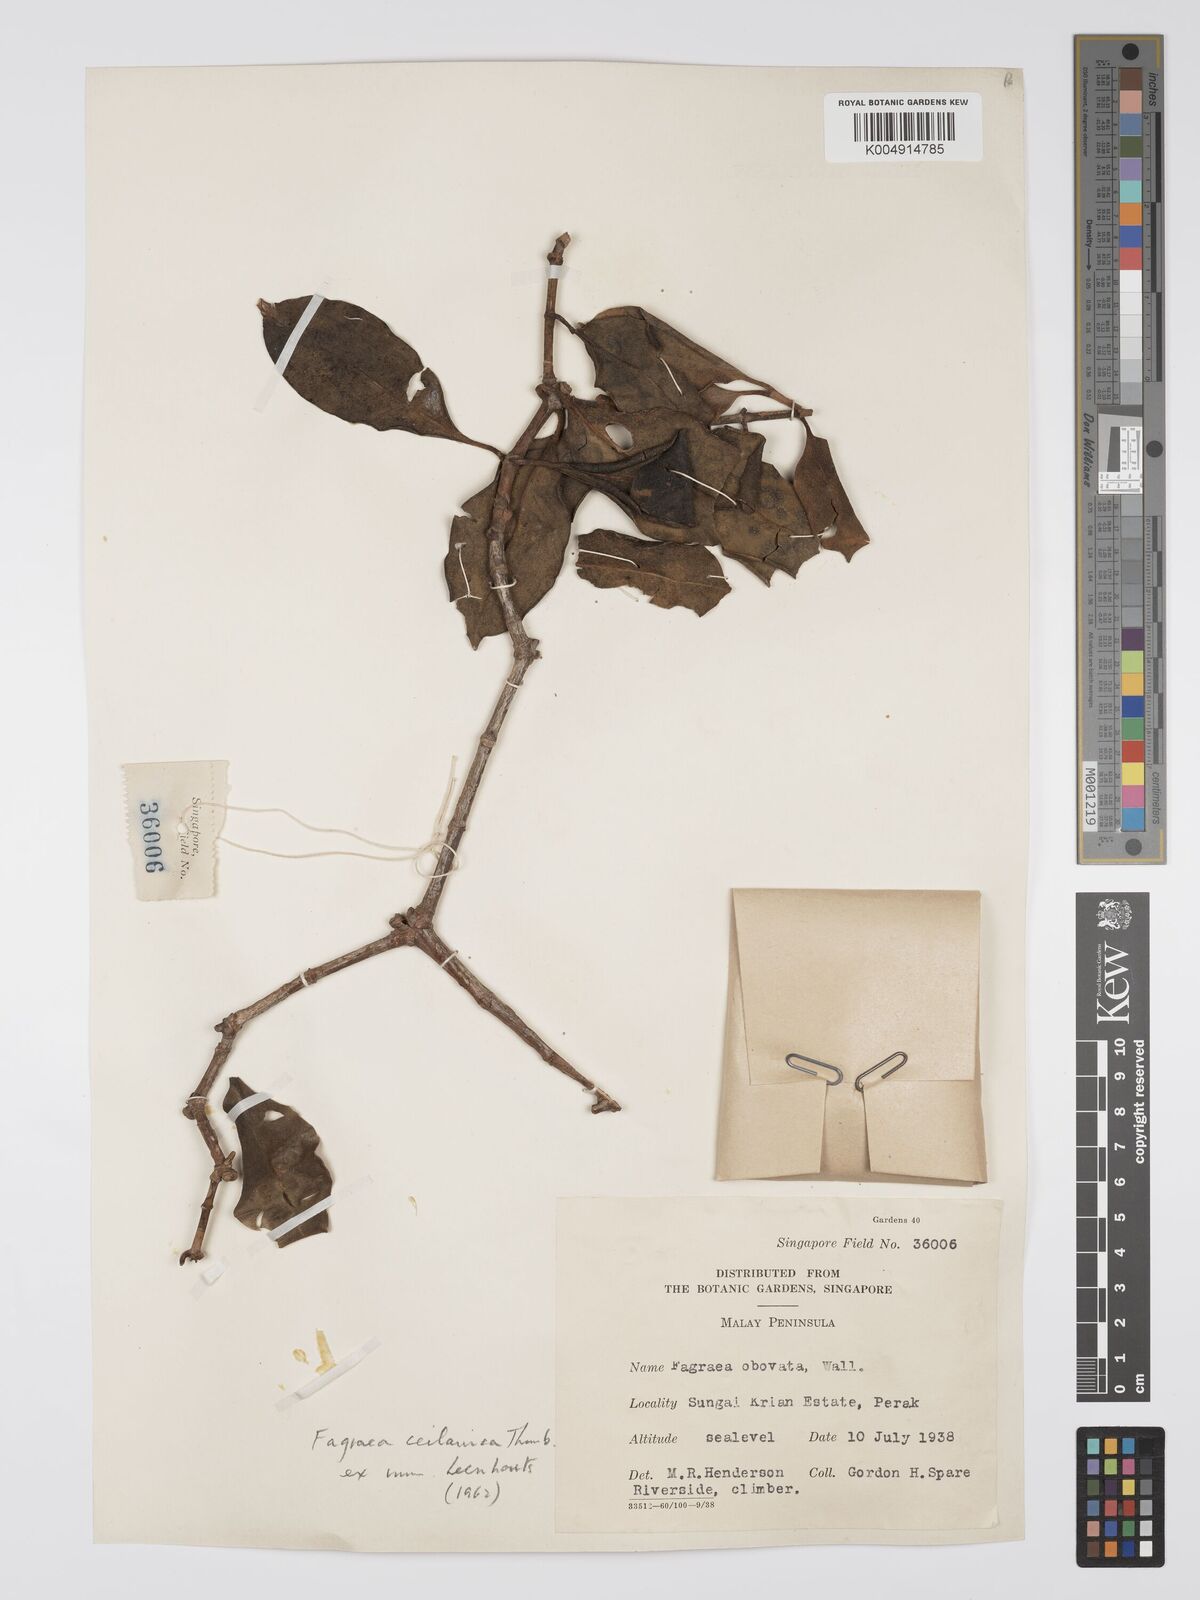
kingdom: Plantae
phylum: Tracheophyta
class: Magnoliopsida
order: Gentianales
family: Gentianaceae
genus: Fagraea
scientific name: Fagraea oblonga
